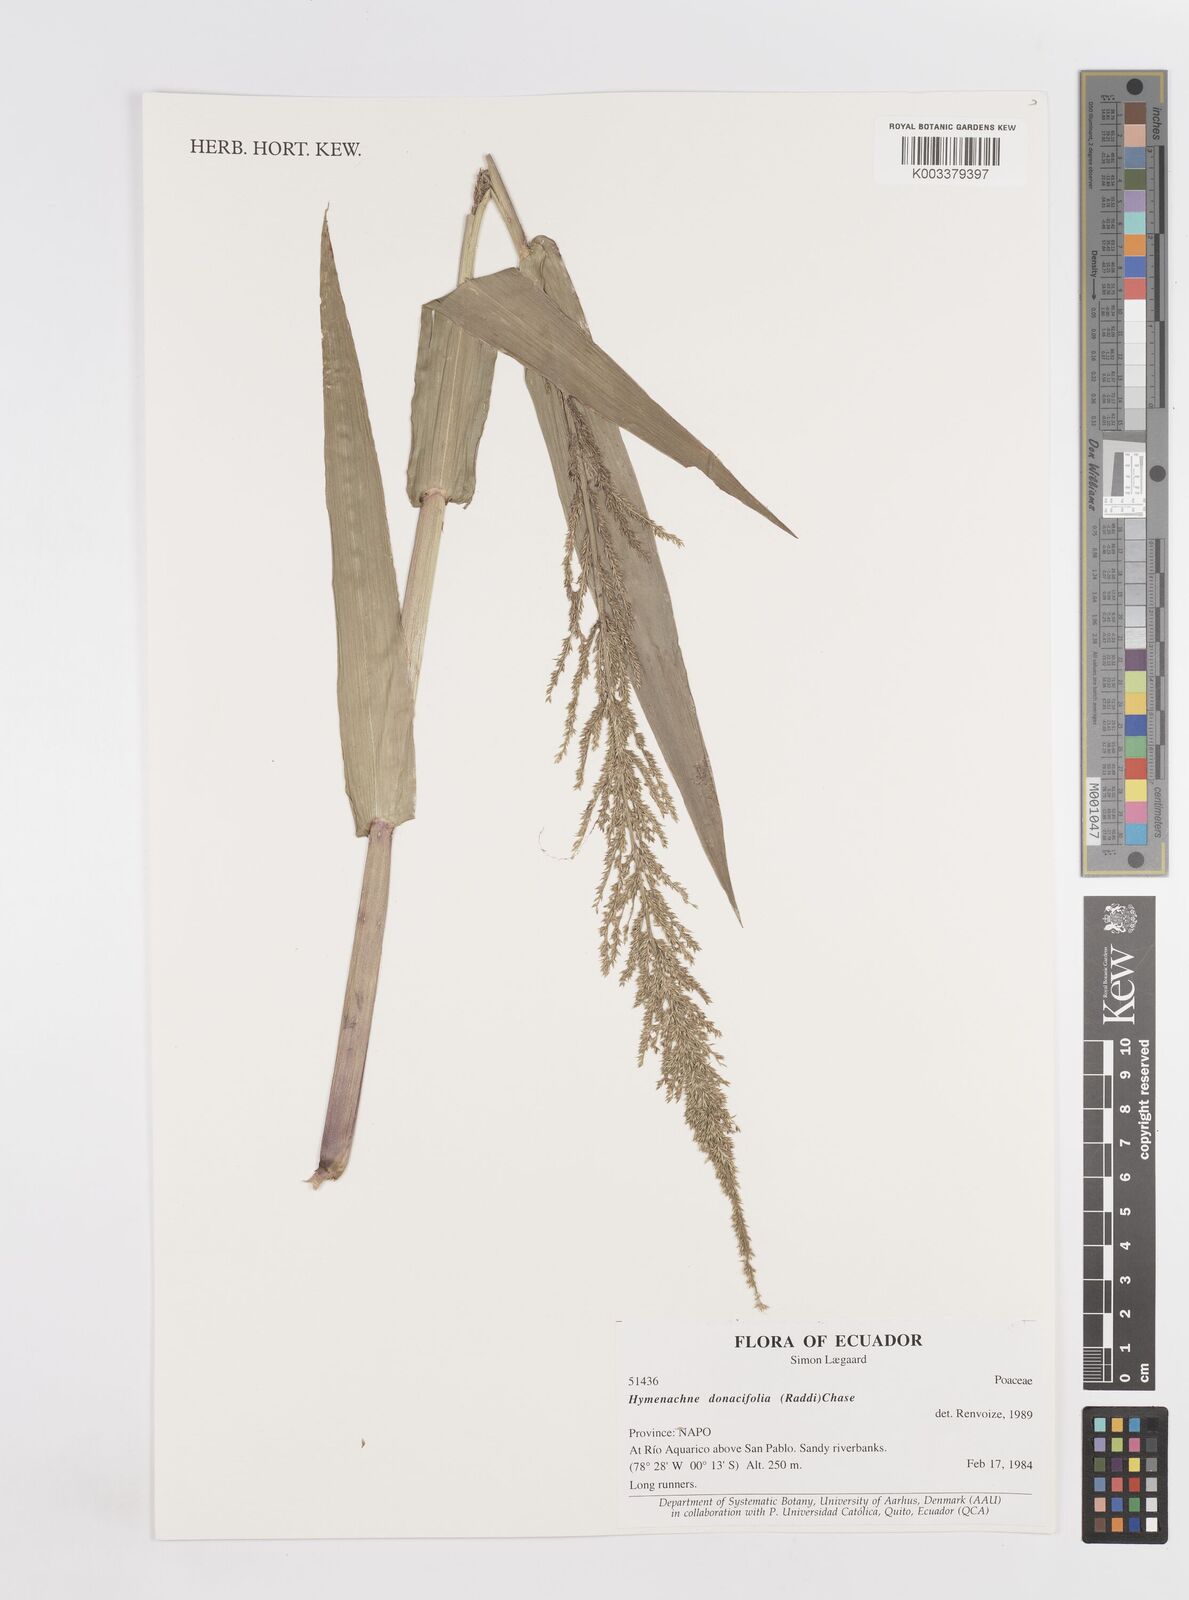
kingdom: Plantae
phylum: Tracheophyta
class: Liliopsida
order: Poales
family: Poaceae
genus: Hymenachne
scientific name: Hymenachne donacifolia
